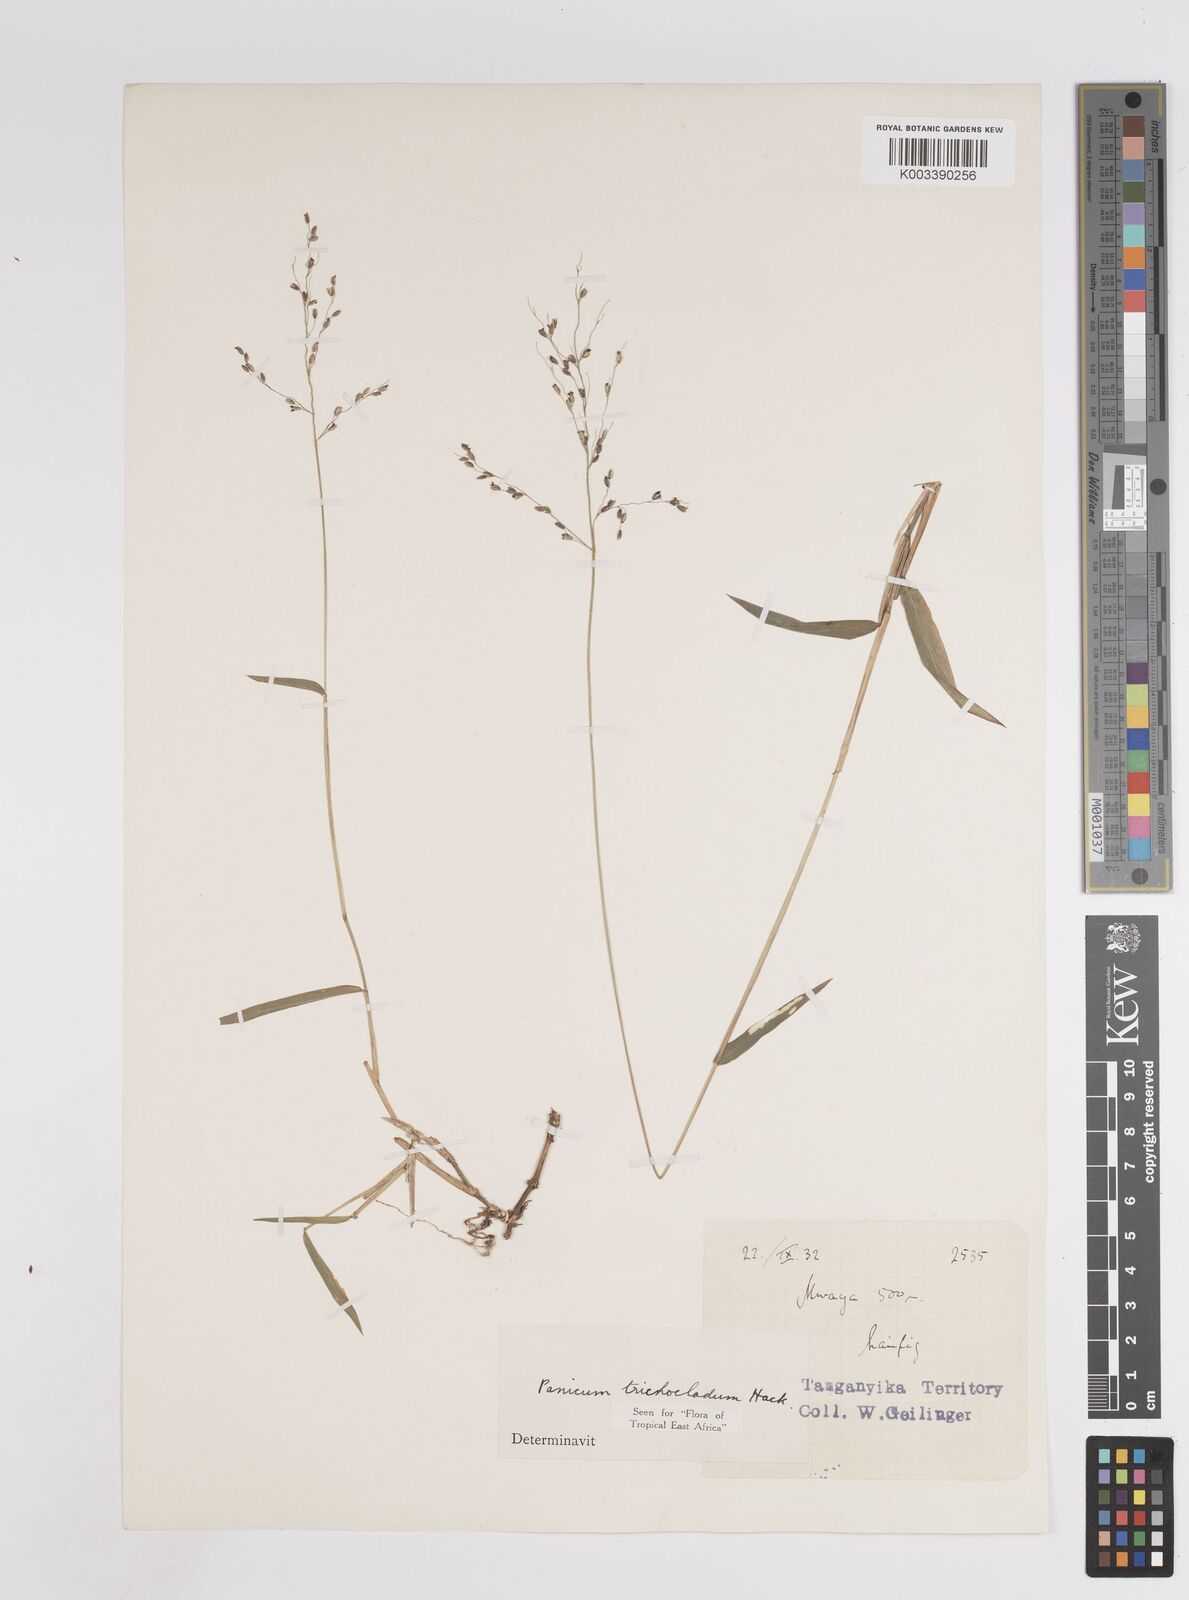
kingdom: Plantae
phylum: Tracheophyta
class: Liliopsida
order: Poales
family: Poaceae
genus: Panicum
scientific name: Panicum trichocladum
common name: Donkey grass
